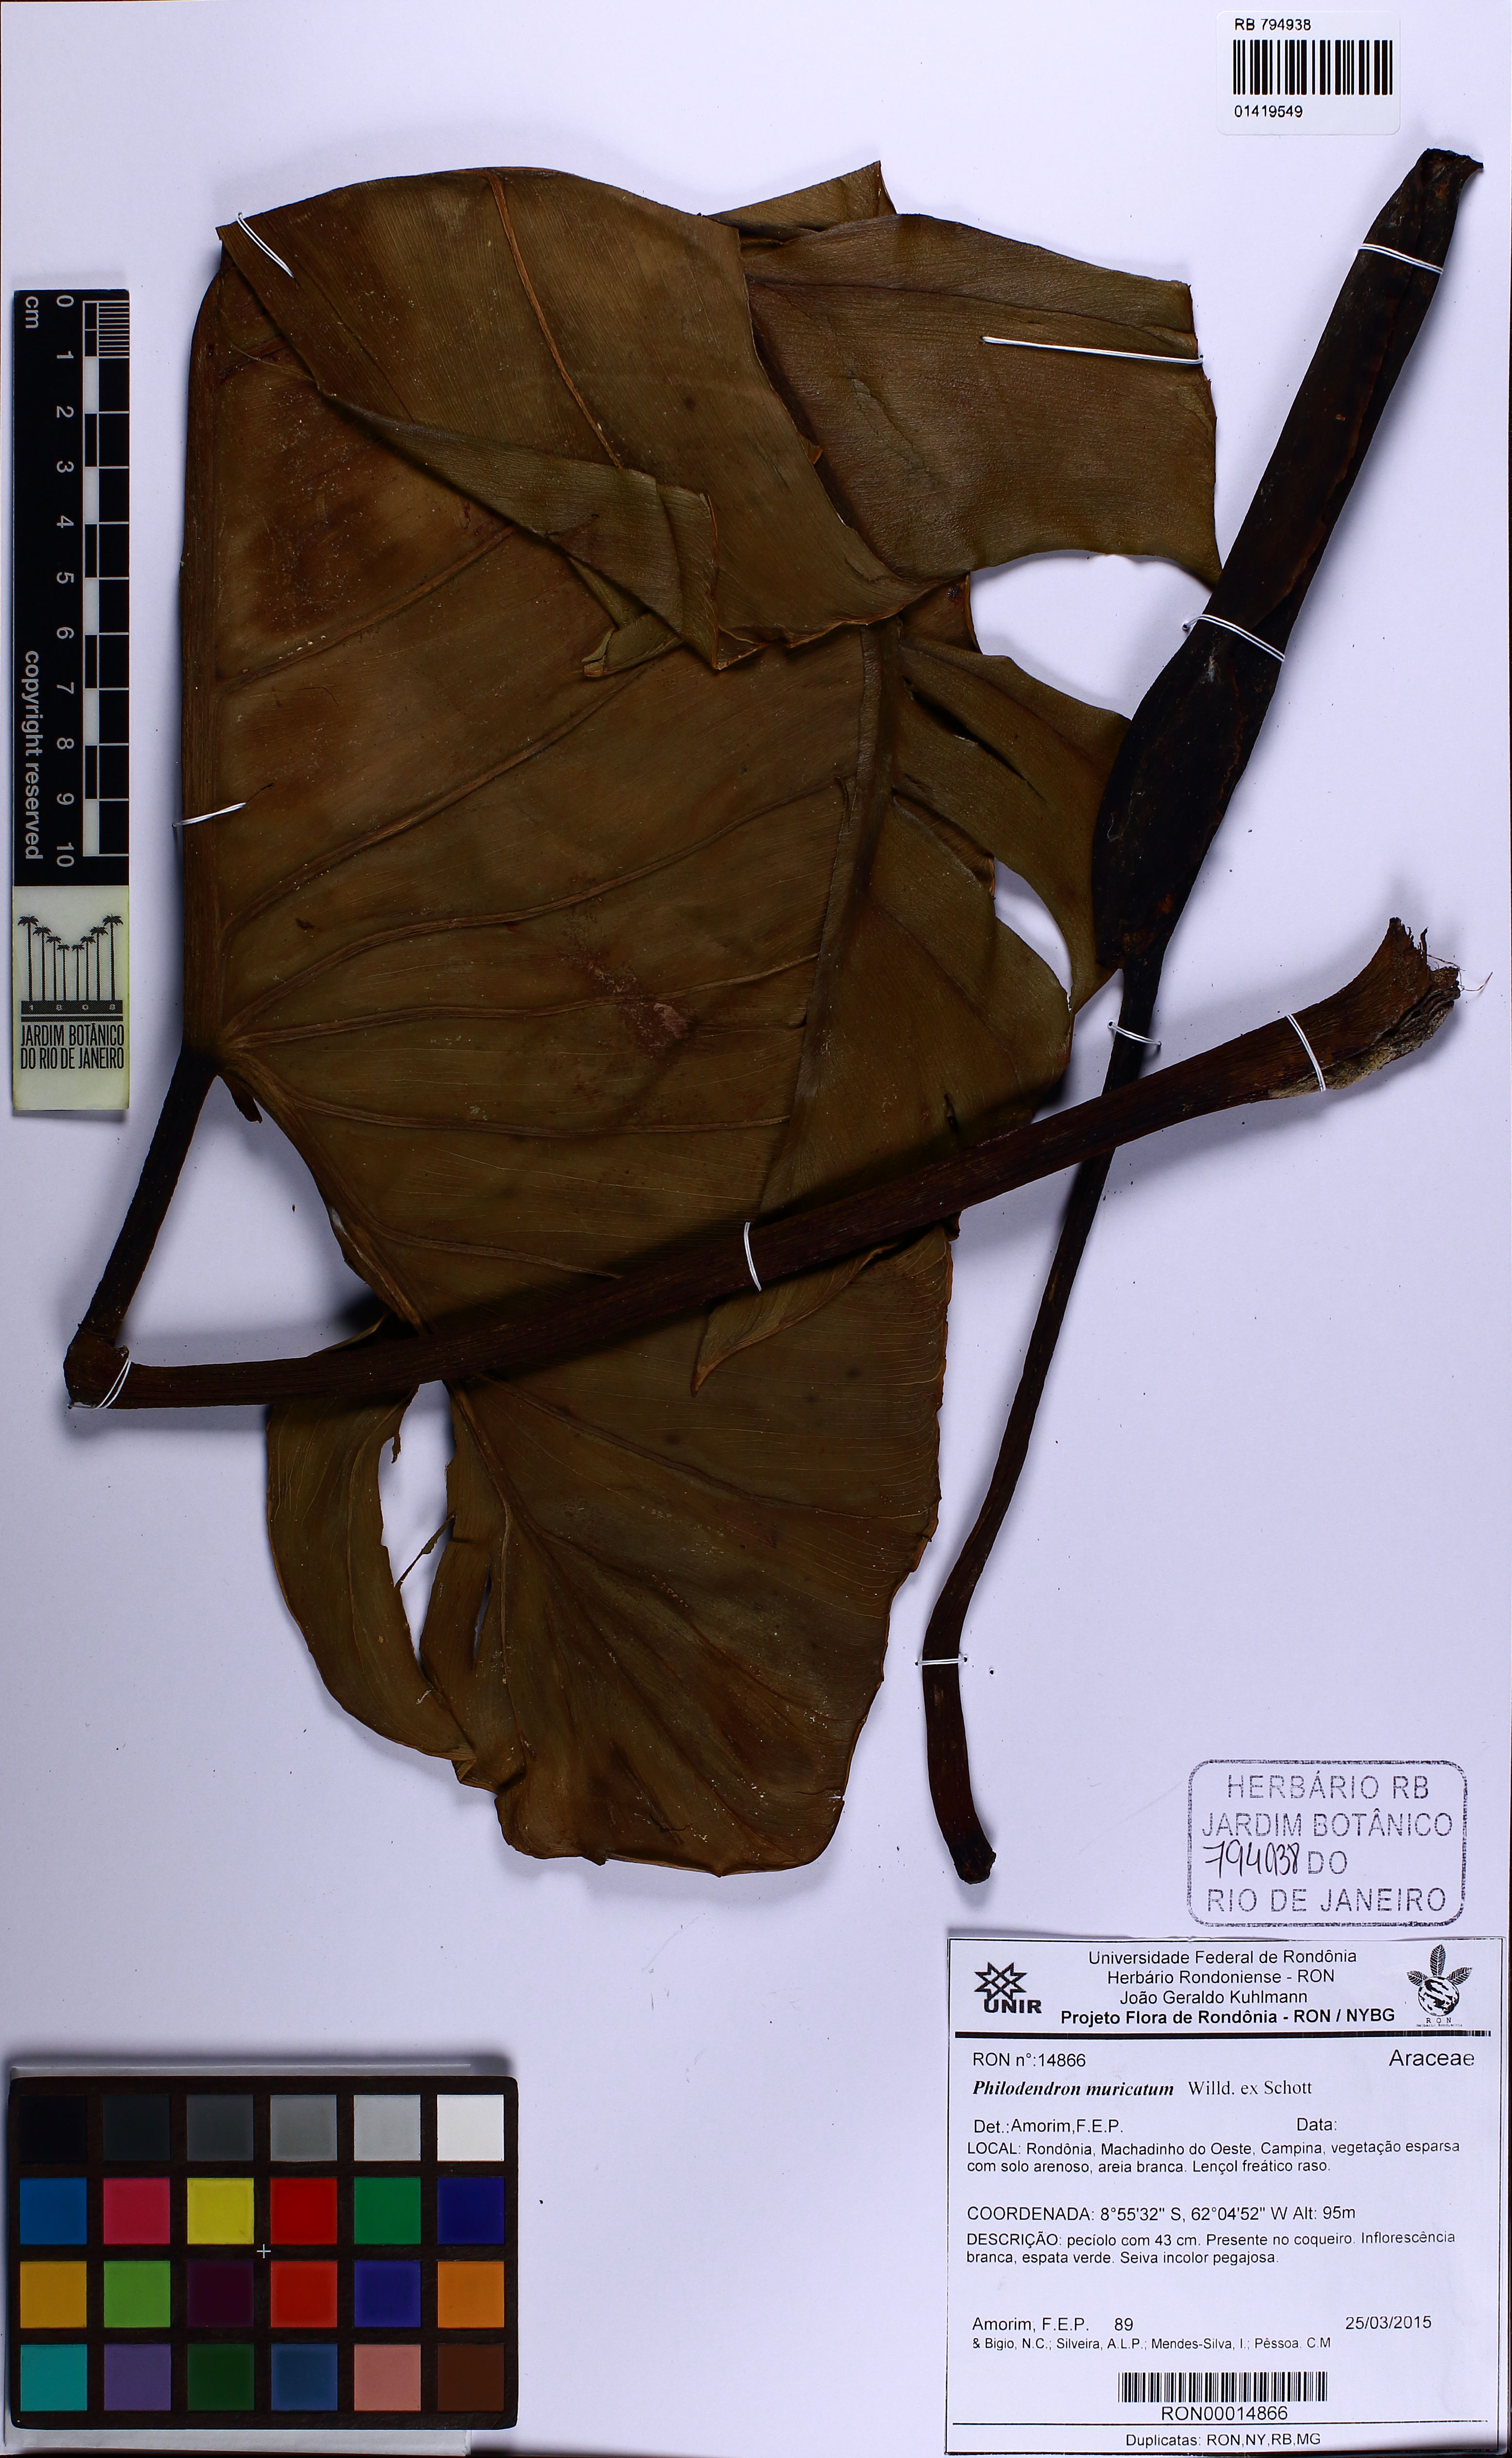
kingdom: Plantae
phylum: Tracheophyta
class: Liliopsida
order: Alismatales
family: Araceae
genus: Philodendron
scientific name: Philodendron muricatum
